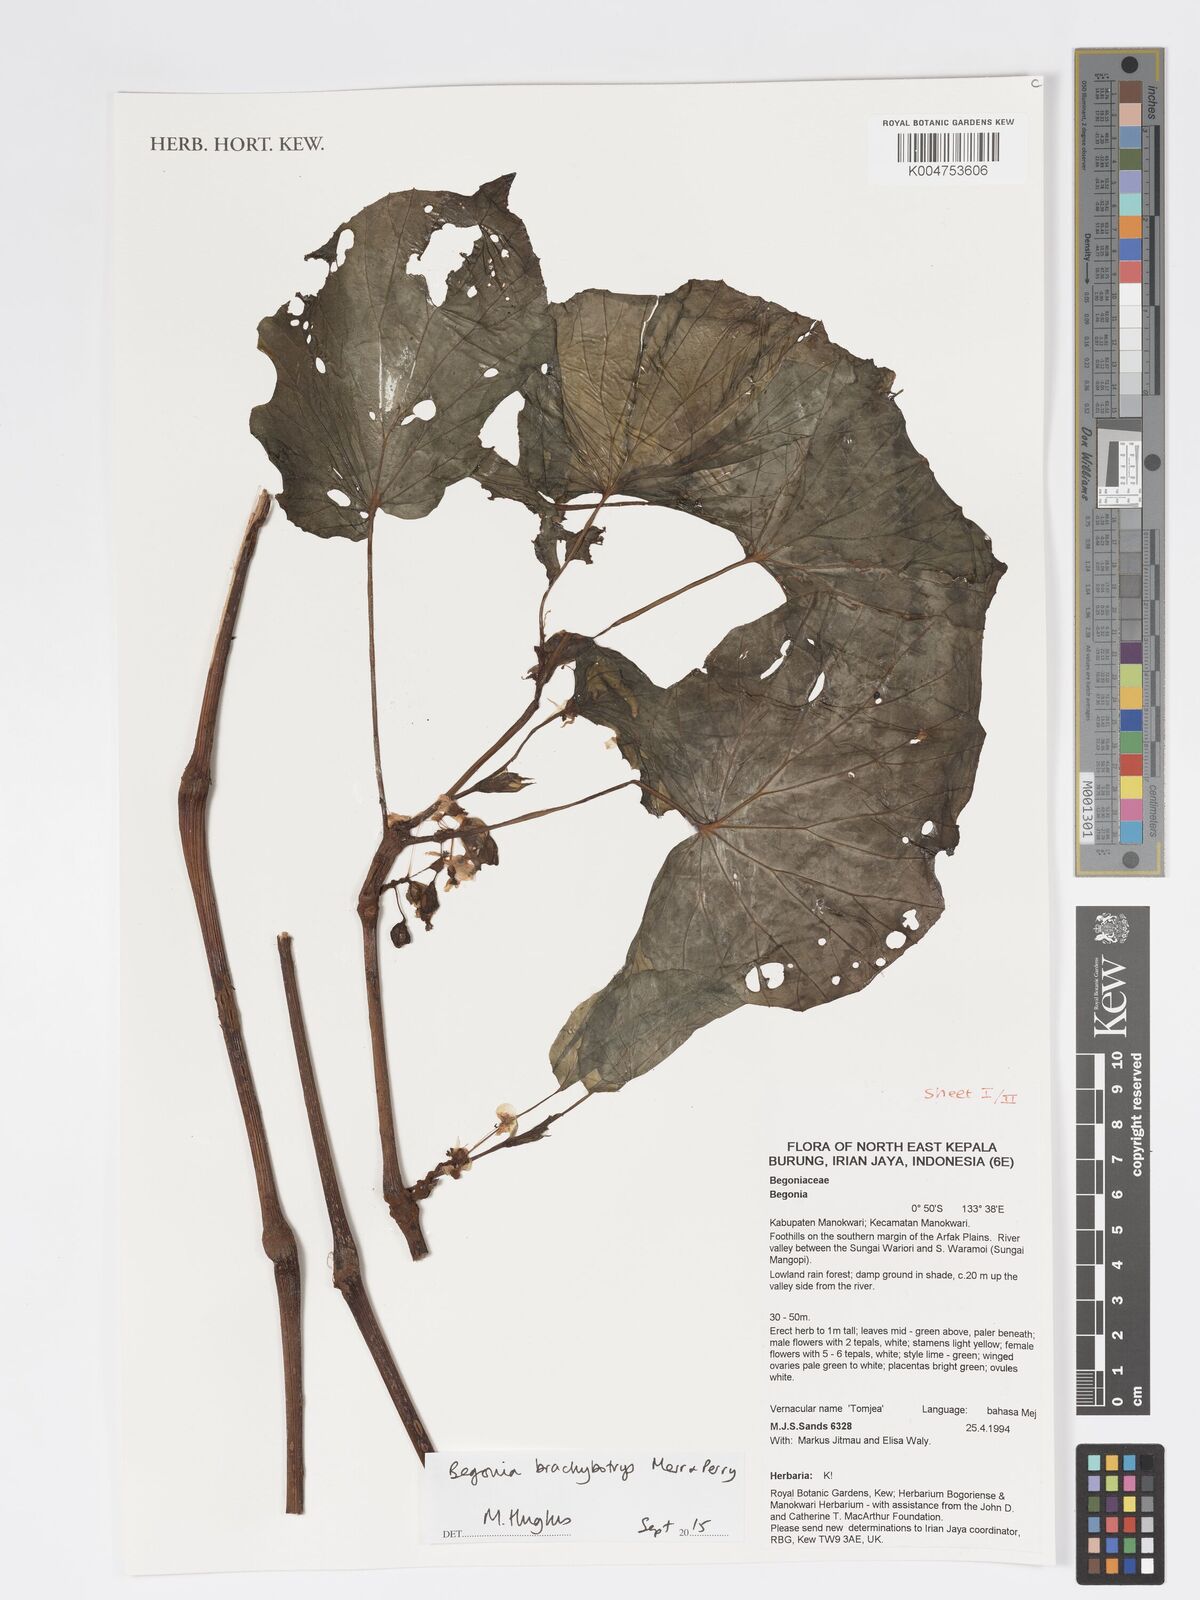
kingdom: Plantae
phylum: Tracheophyta
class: Magnoliopsida
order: Cucurbitales
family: Begoniaceae
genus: Begonia
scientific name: Begonia brachybotrys
